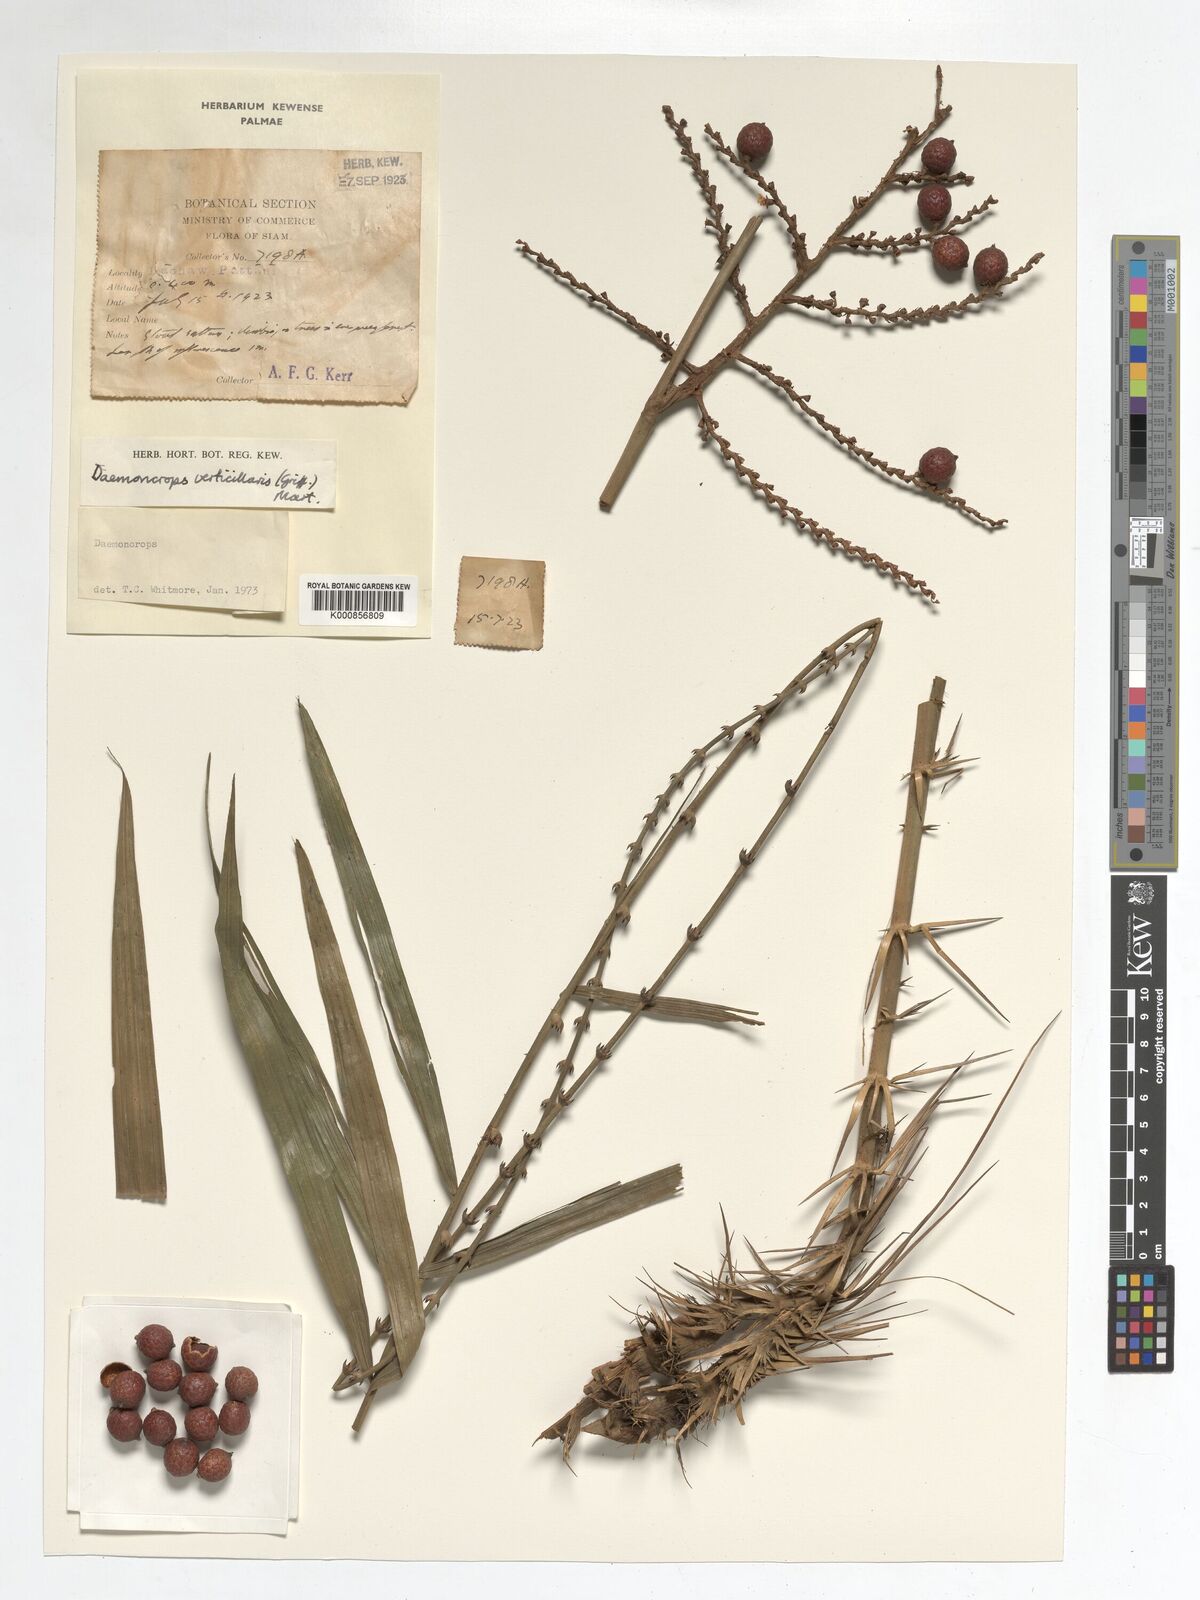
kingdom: Plantae
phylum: Tracheophyta
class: Liliopsida
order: Arecales
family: Arecaceae
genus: Calamus
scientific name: Calamus verticillaris
